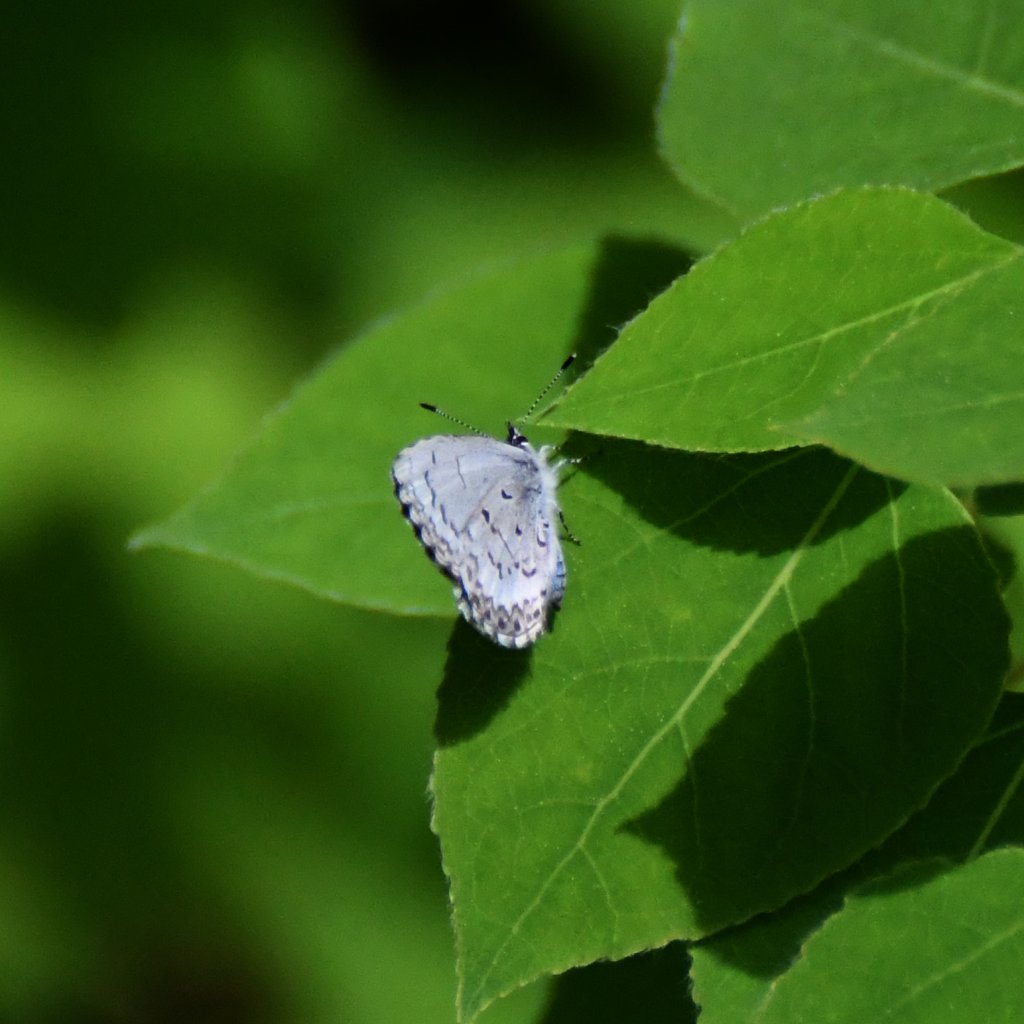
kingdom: Animalia
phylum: Arthropoda
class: Insecta
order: Lepidoptera
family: Lycaenidae
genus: Celastrina
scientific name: Celastrina lucia
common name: Northern Spring Azure
